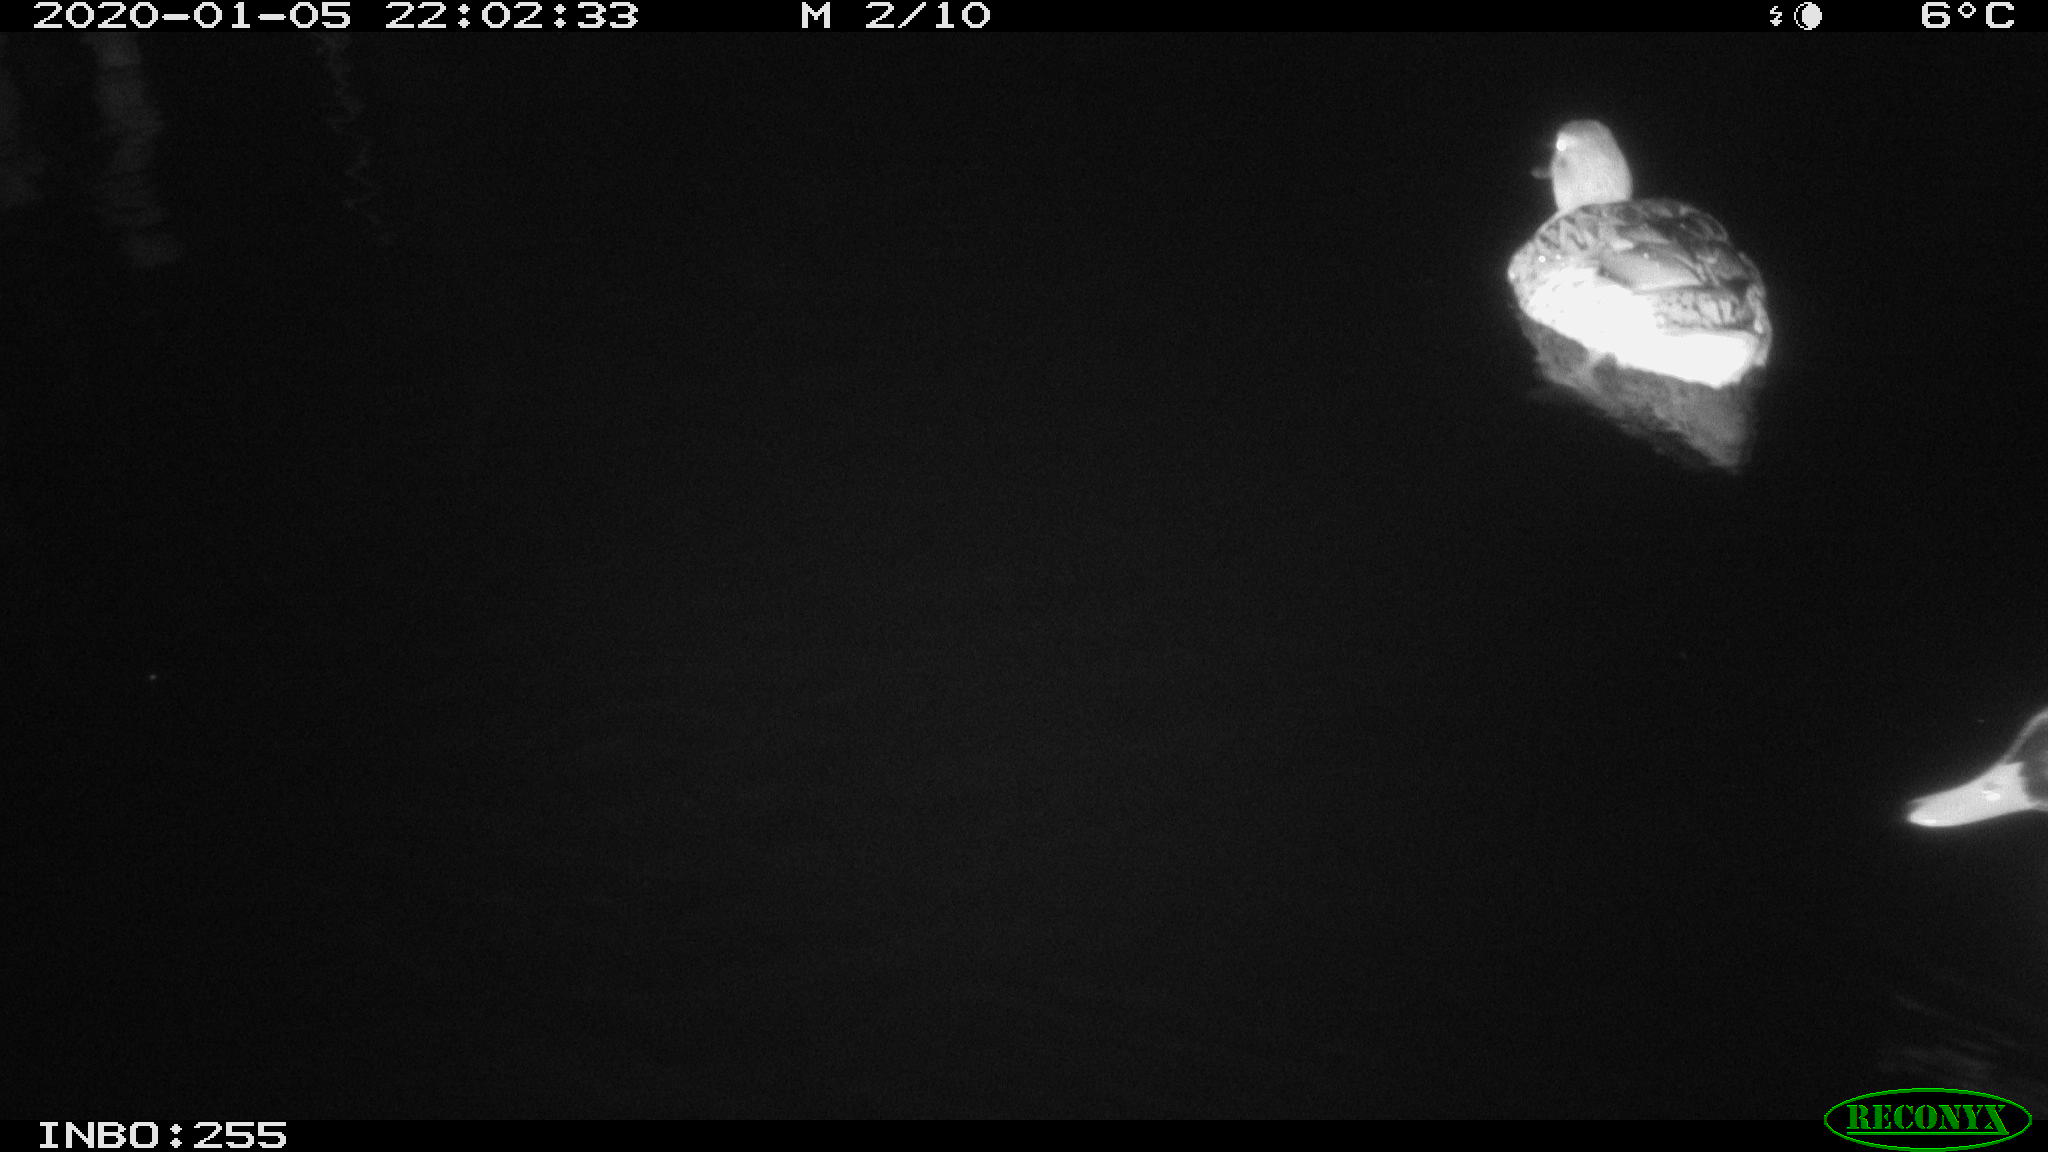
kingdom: Animalia
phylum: Chordata
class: Aves
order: Anseriformes
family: Anatidae
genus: Anas
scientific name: Anas platyrhynchos
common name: Mallard
